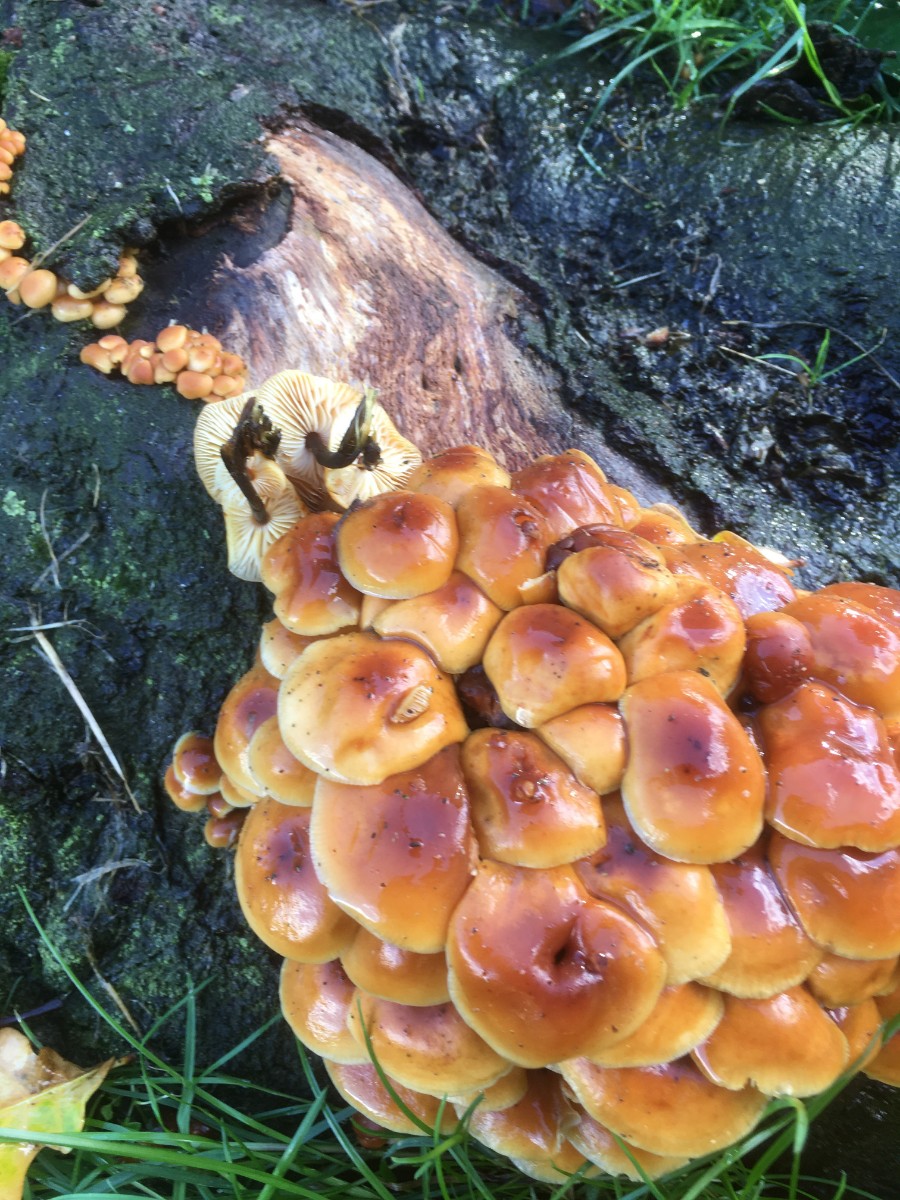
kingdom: Fungi
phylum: Basidiomycota
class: Agaricomycetes
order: Agaricales
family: Physalacriaceae
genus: Flammulina
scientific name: Flammulina velutipes
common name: gul fløjlsfod
